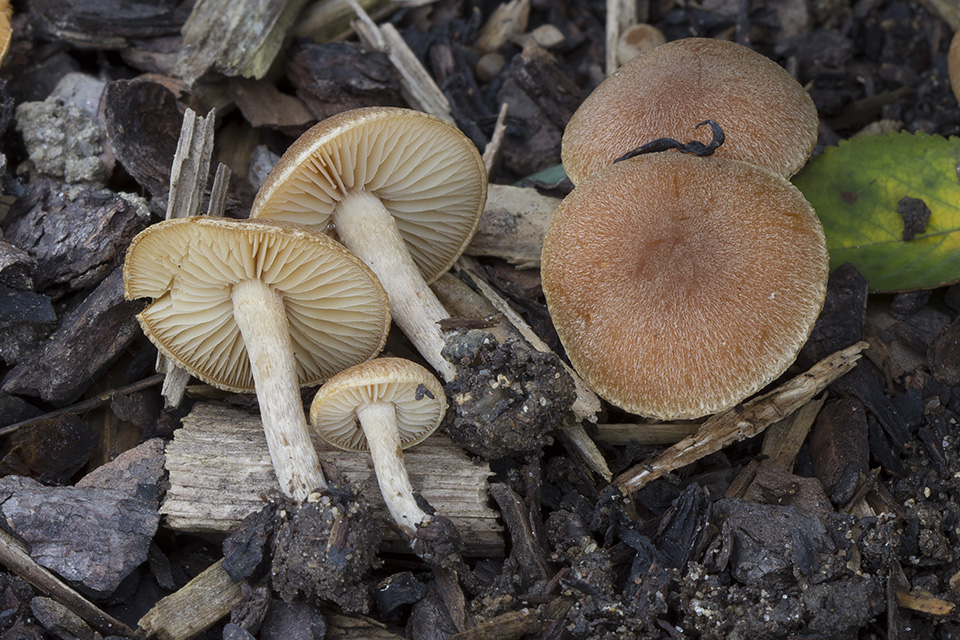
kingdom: Fungi
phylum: Basidiomycota
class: Agaricomycetes
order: Agaricales
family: Psathyrellaceae
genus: Lacrymaria
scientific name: Lacrymaria lacrymabunda
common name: grædende mørkhat
